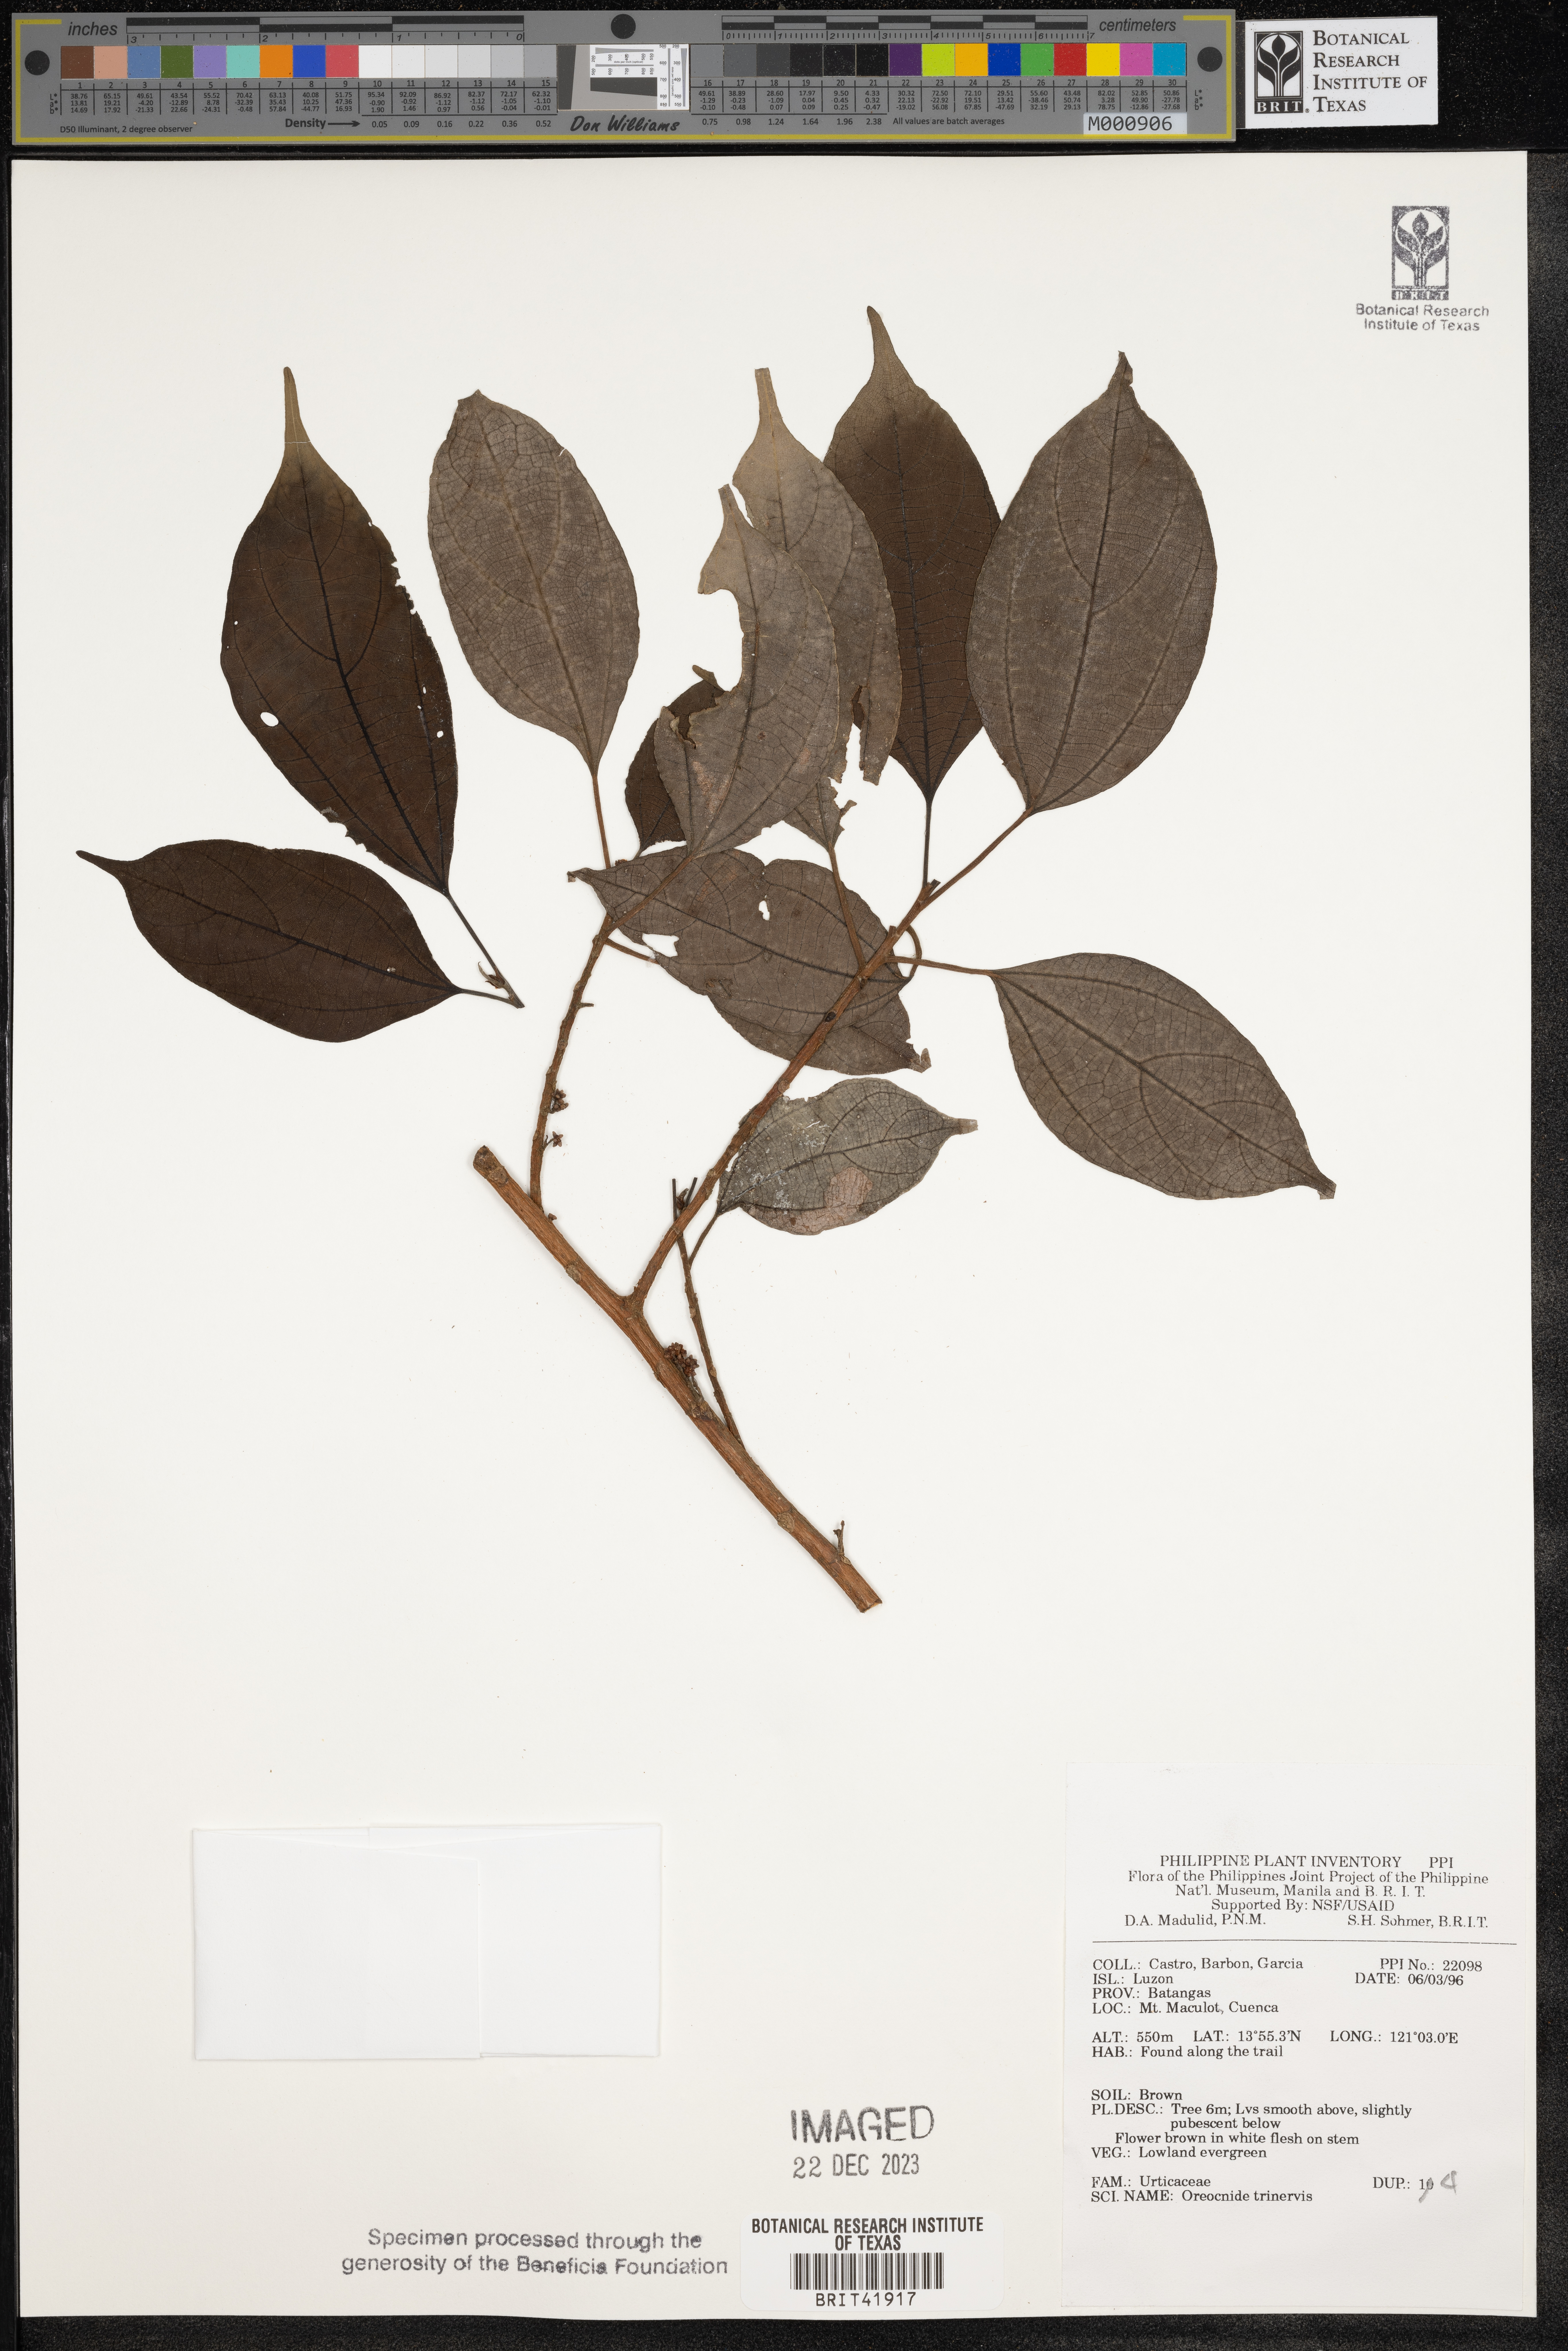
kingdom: Plantae
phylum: Tracheophyta
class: Magnoliopsida
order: Rosales
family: Urticaceae
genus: Oreocnide
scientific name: Oreocnide trinervis
